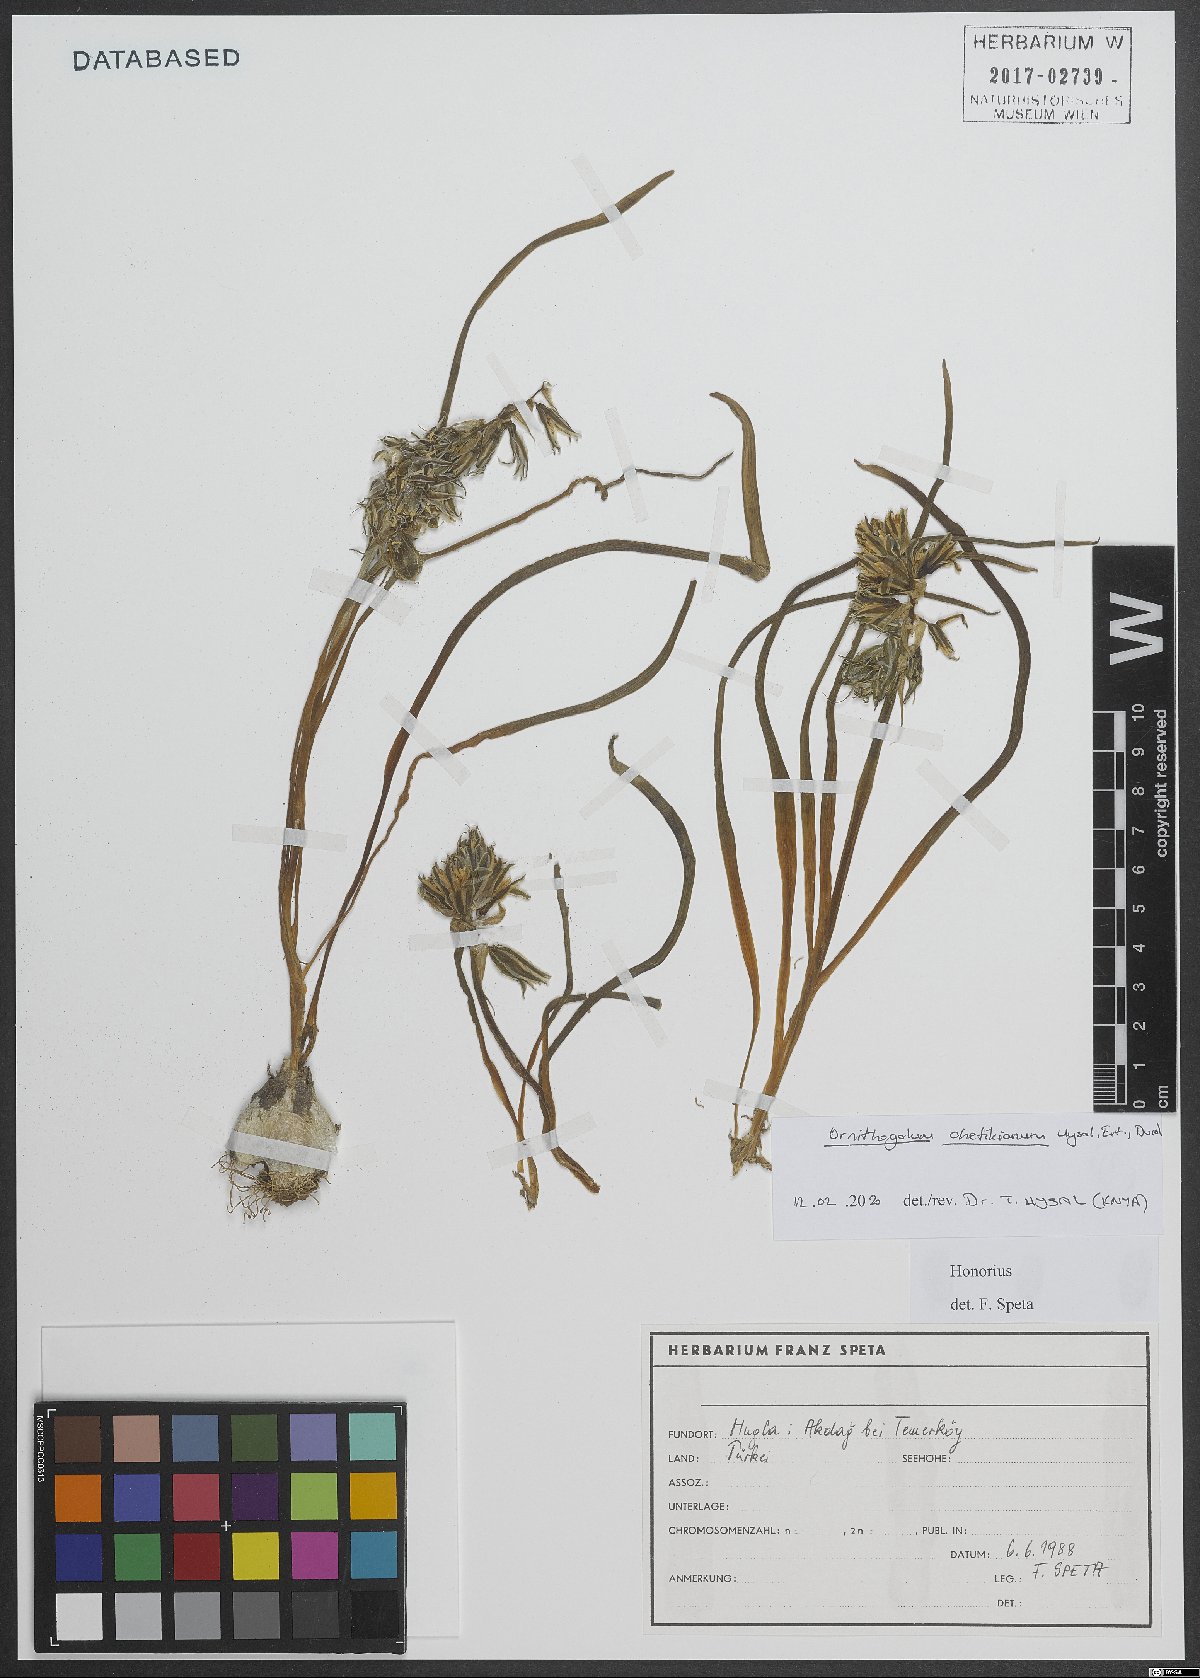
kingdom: Plantae
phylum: Tracheophyta
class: Liliopsida
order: Asparagales
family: Asparagaceae
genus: Ornithogalum
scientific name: Ornithogalum chetikianum
